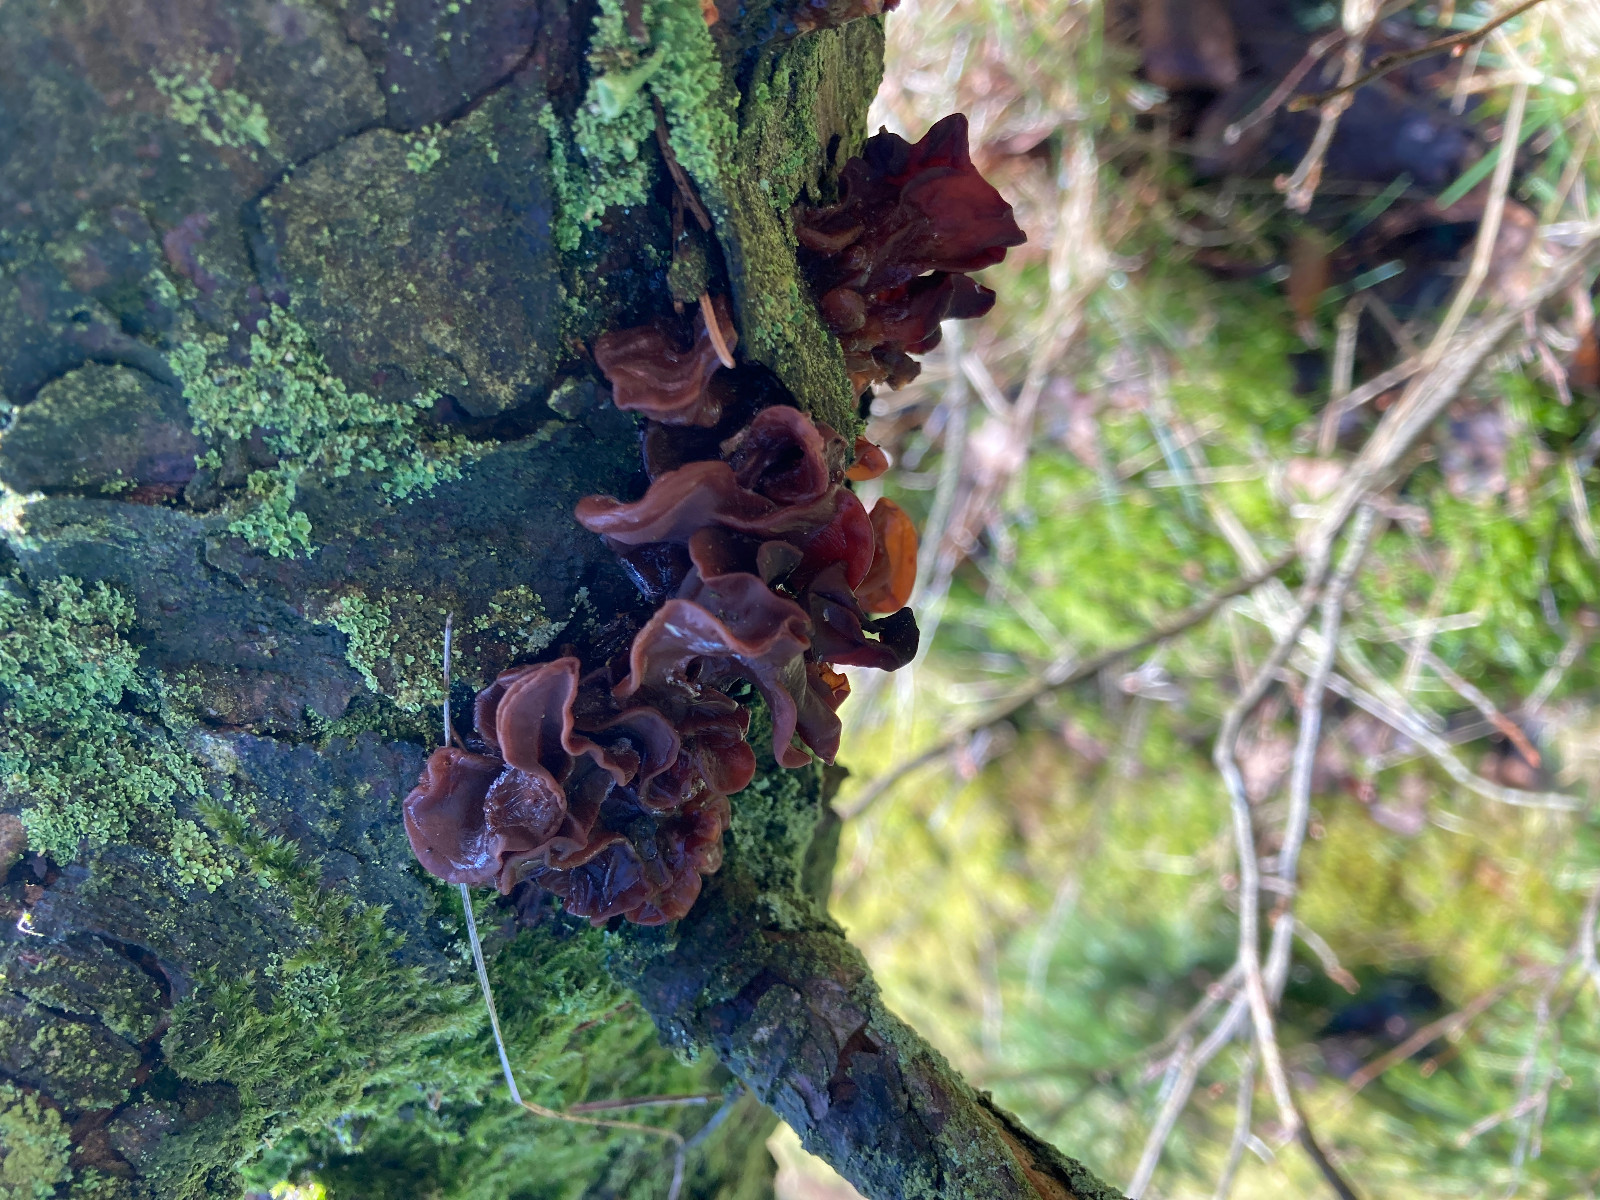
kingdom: Fungi
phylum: Basidiomycota
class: Tremellomycetes
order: Tremellales
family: Tremellaceae
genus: Phaeotremella
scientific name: Phaeotremella foliacea
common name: brun bævresvamp
